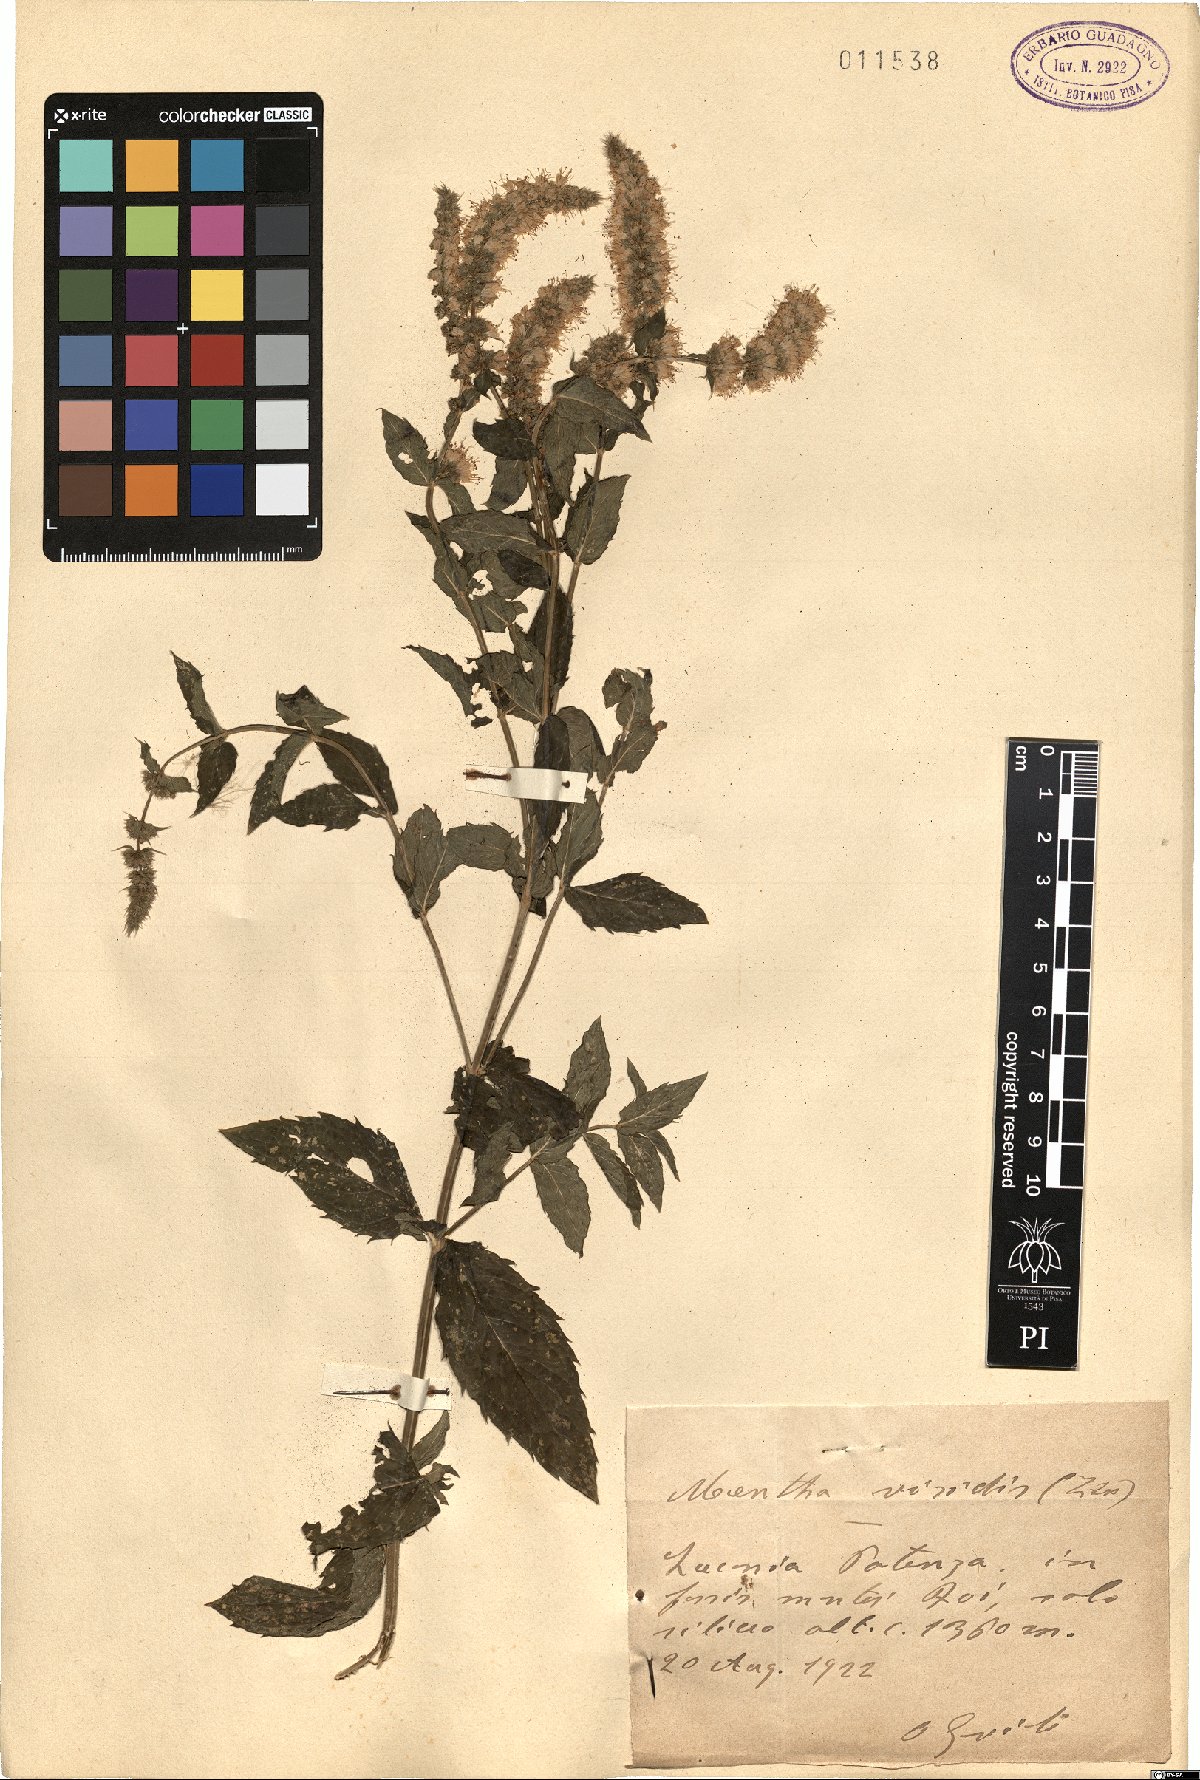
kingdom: Plantae
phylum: Tracheophyta
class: Magnoliopsida
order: Lamiales
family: Lamiaceae
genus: Mentha
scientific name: Mentha spicata
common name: Spearmint
